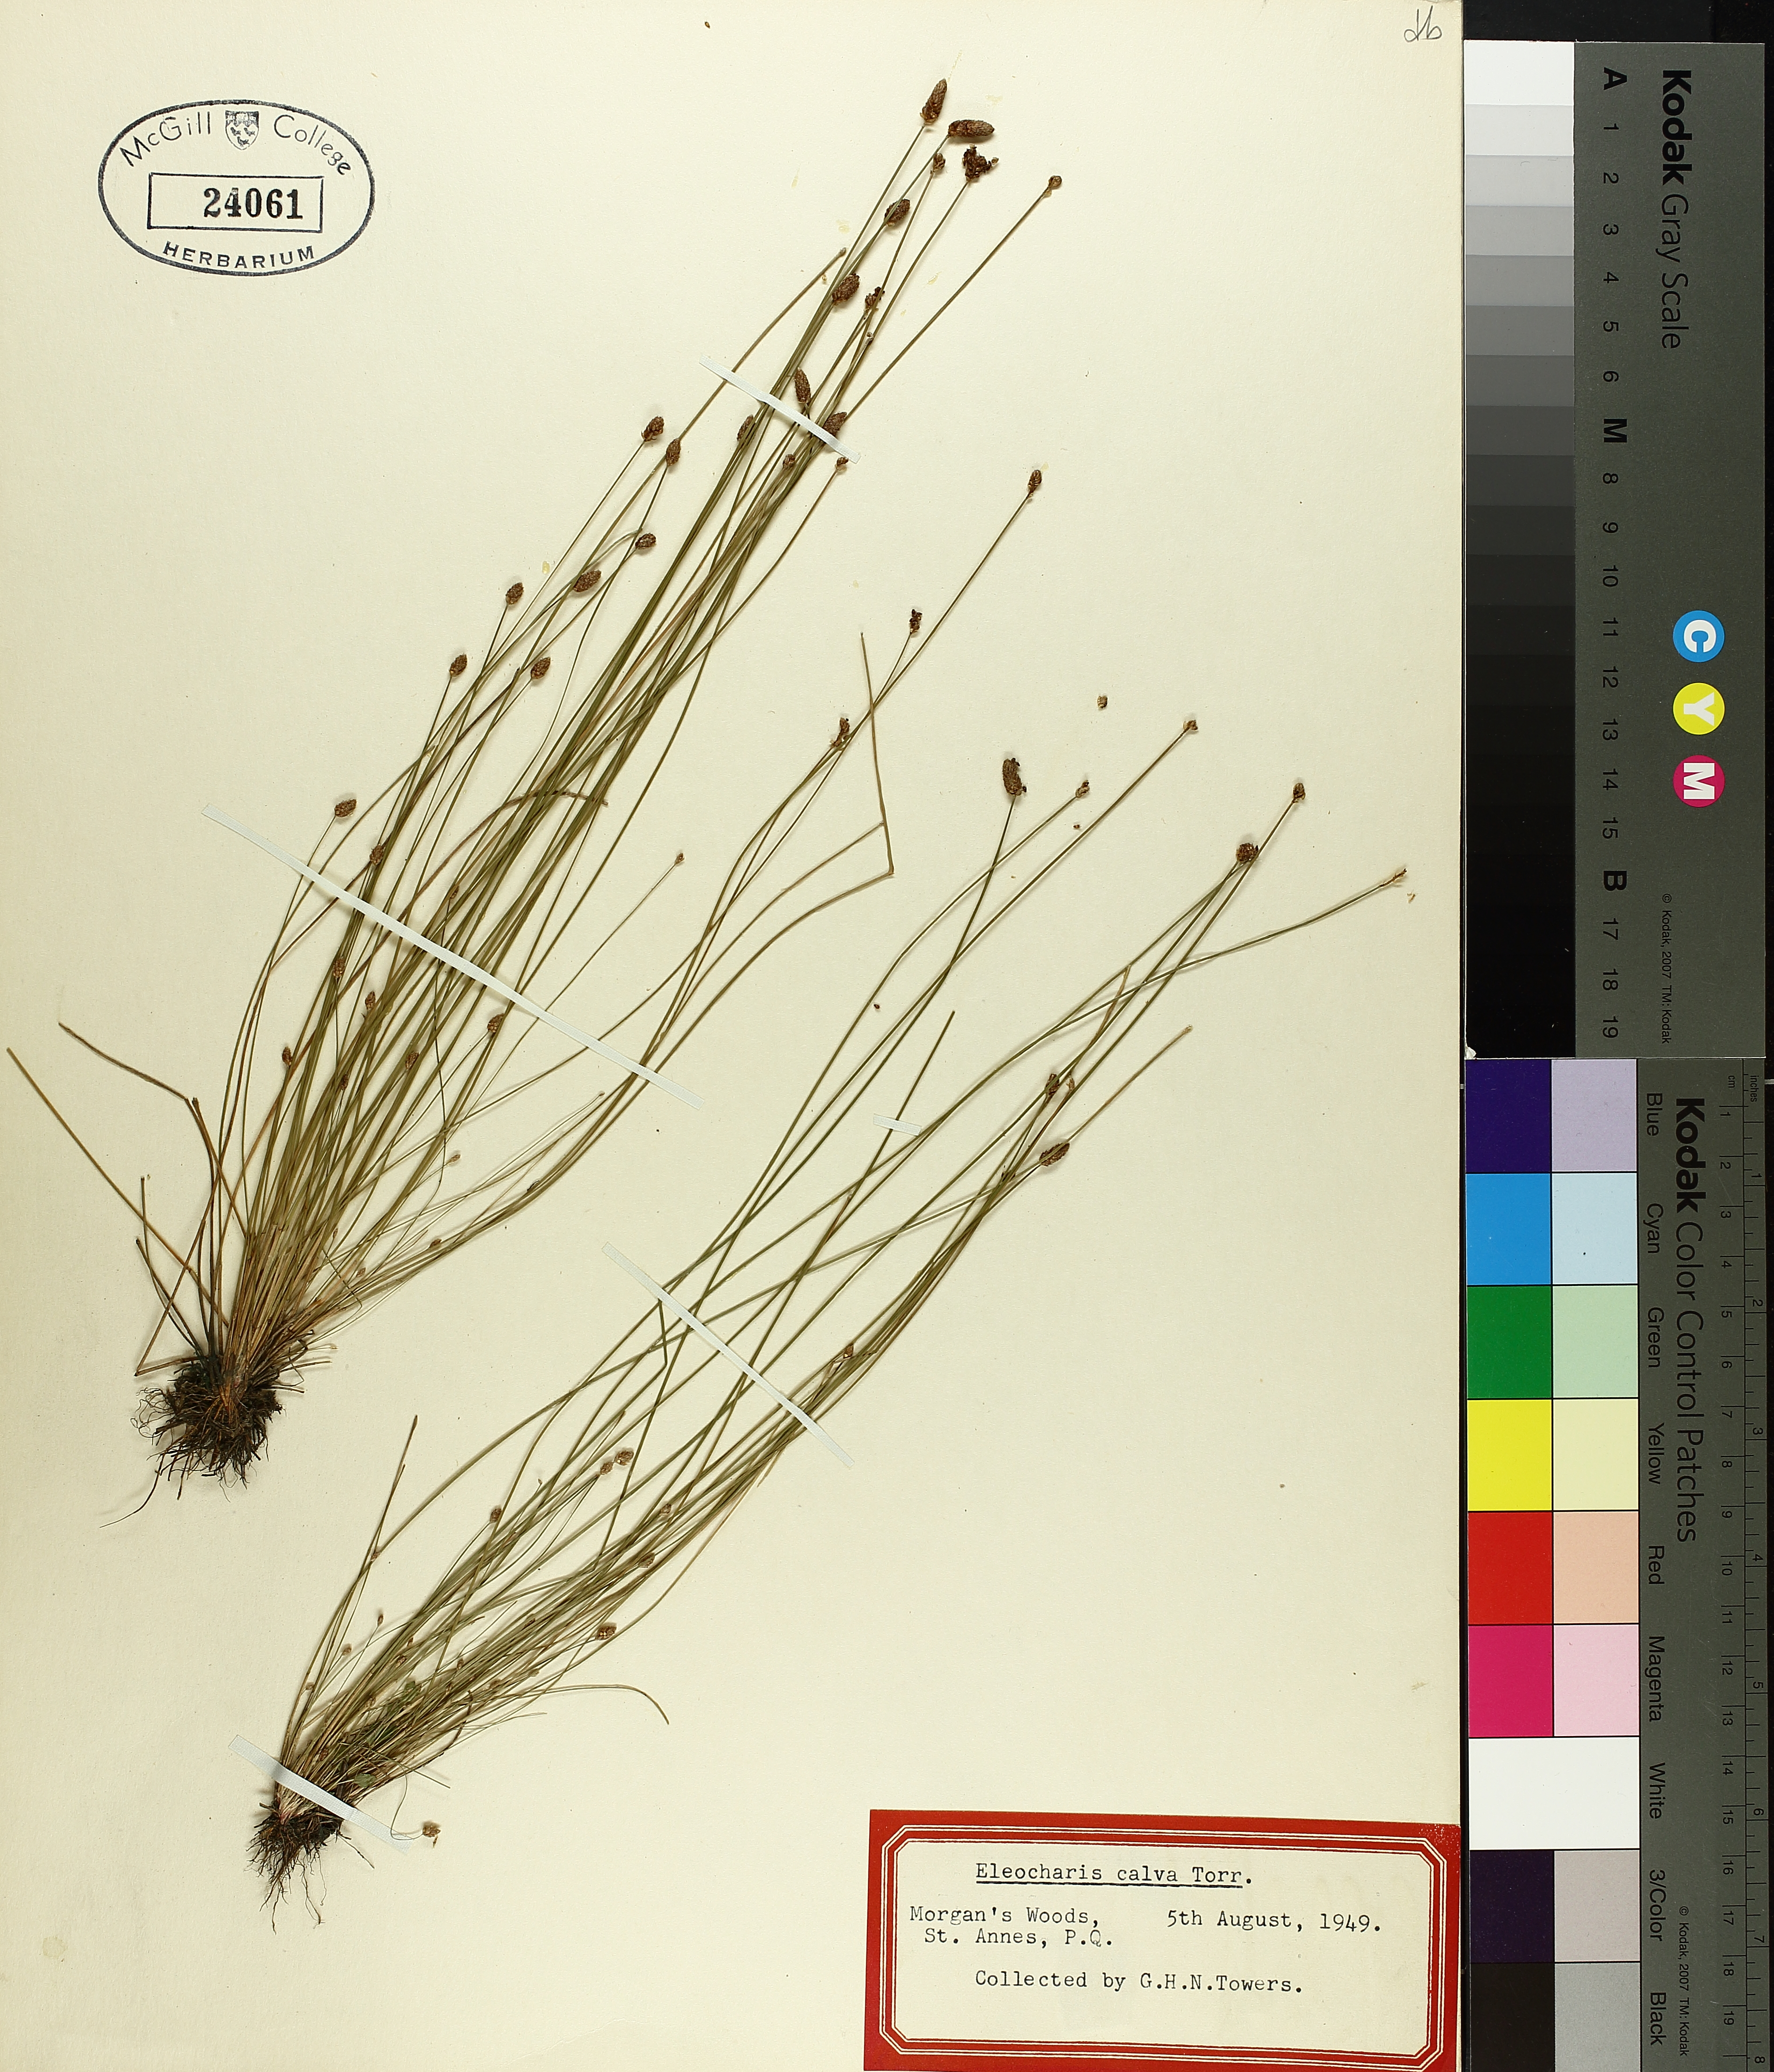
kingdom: Plantae
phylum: Tracheophyta
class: Liliopsida
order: Poales
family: Cyperaceae
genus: Eleocharis
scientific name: Eleocharis erythropoda
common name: Bald spikerush
